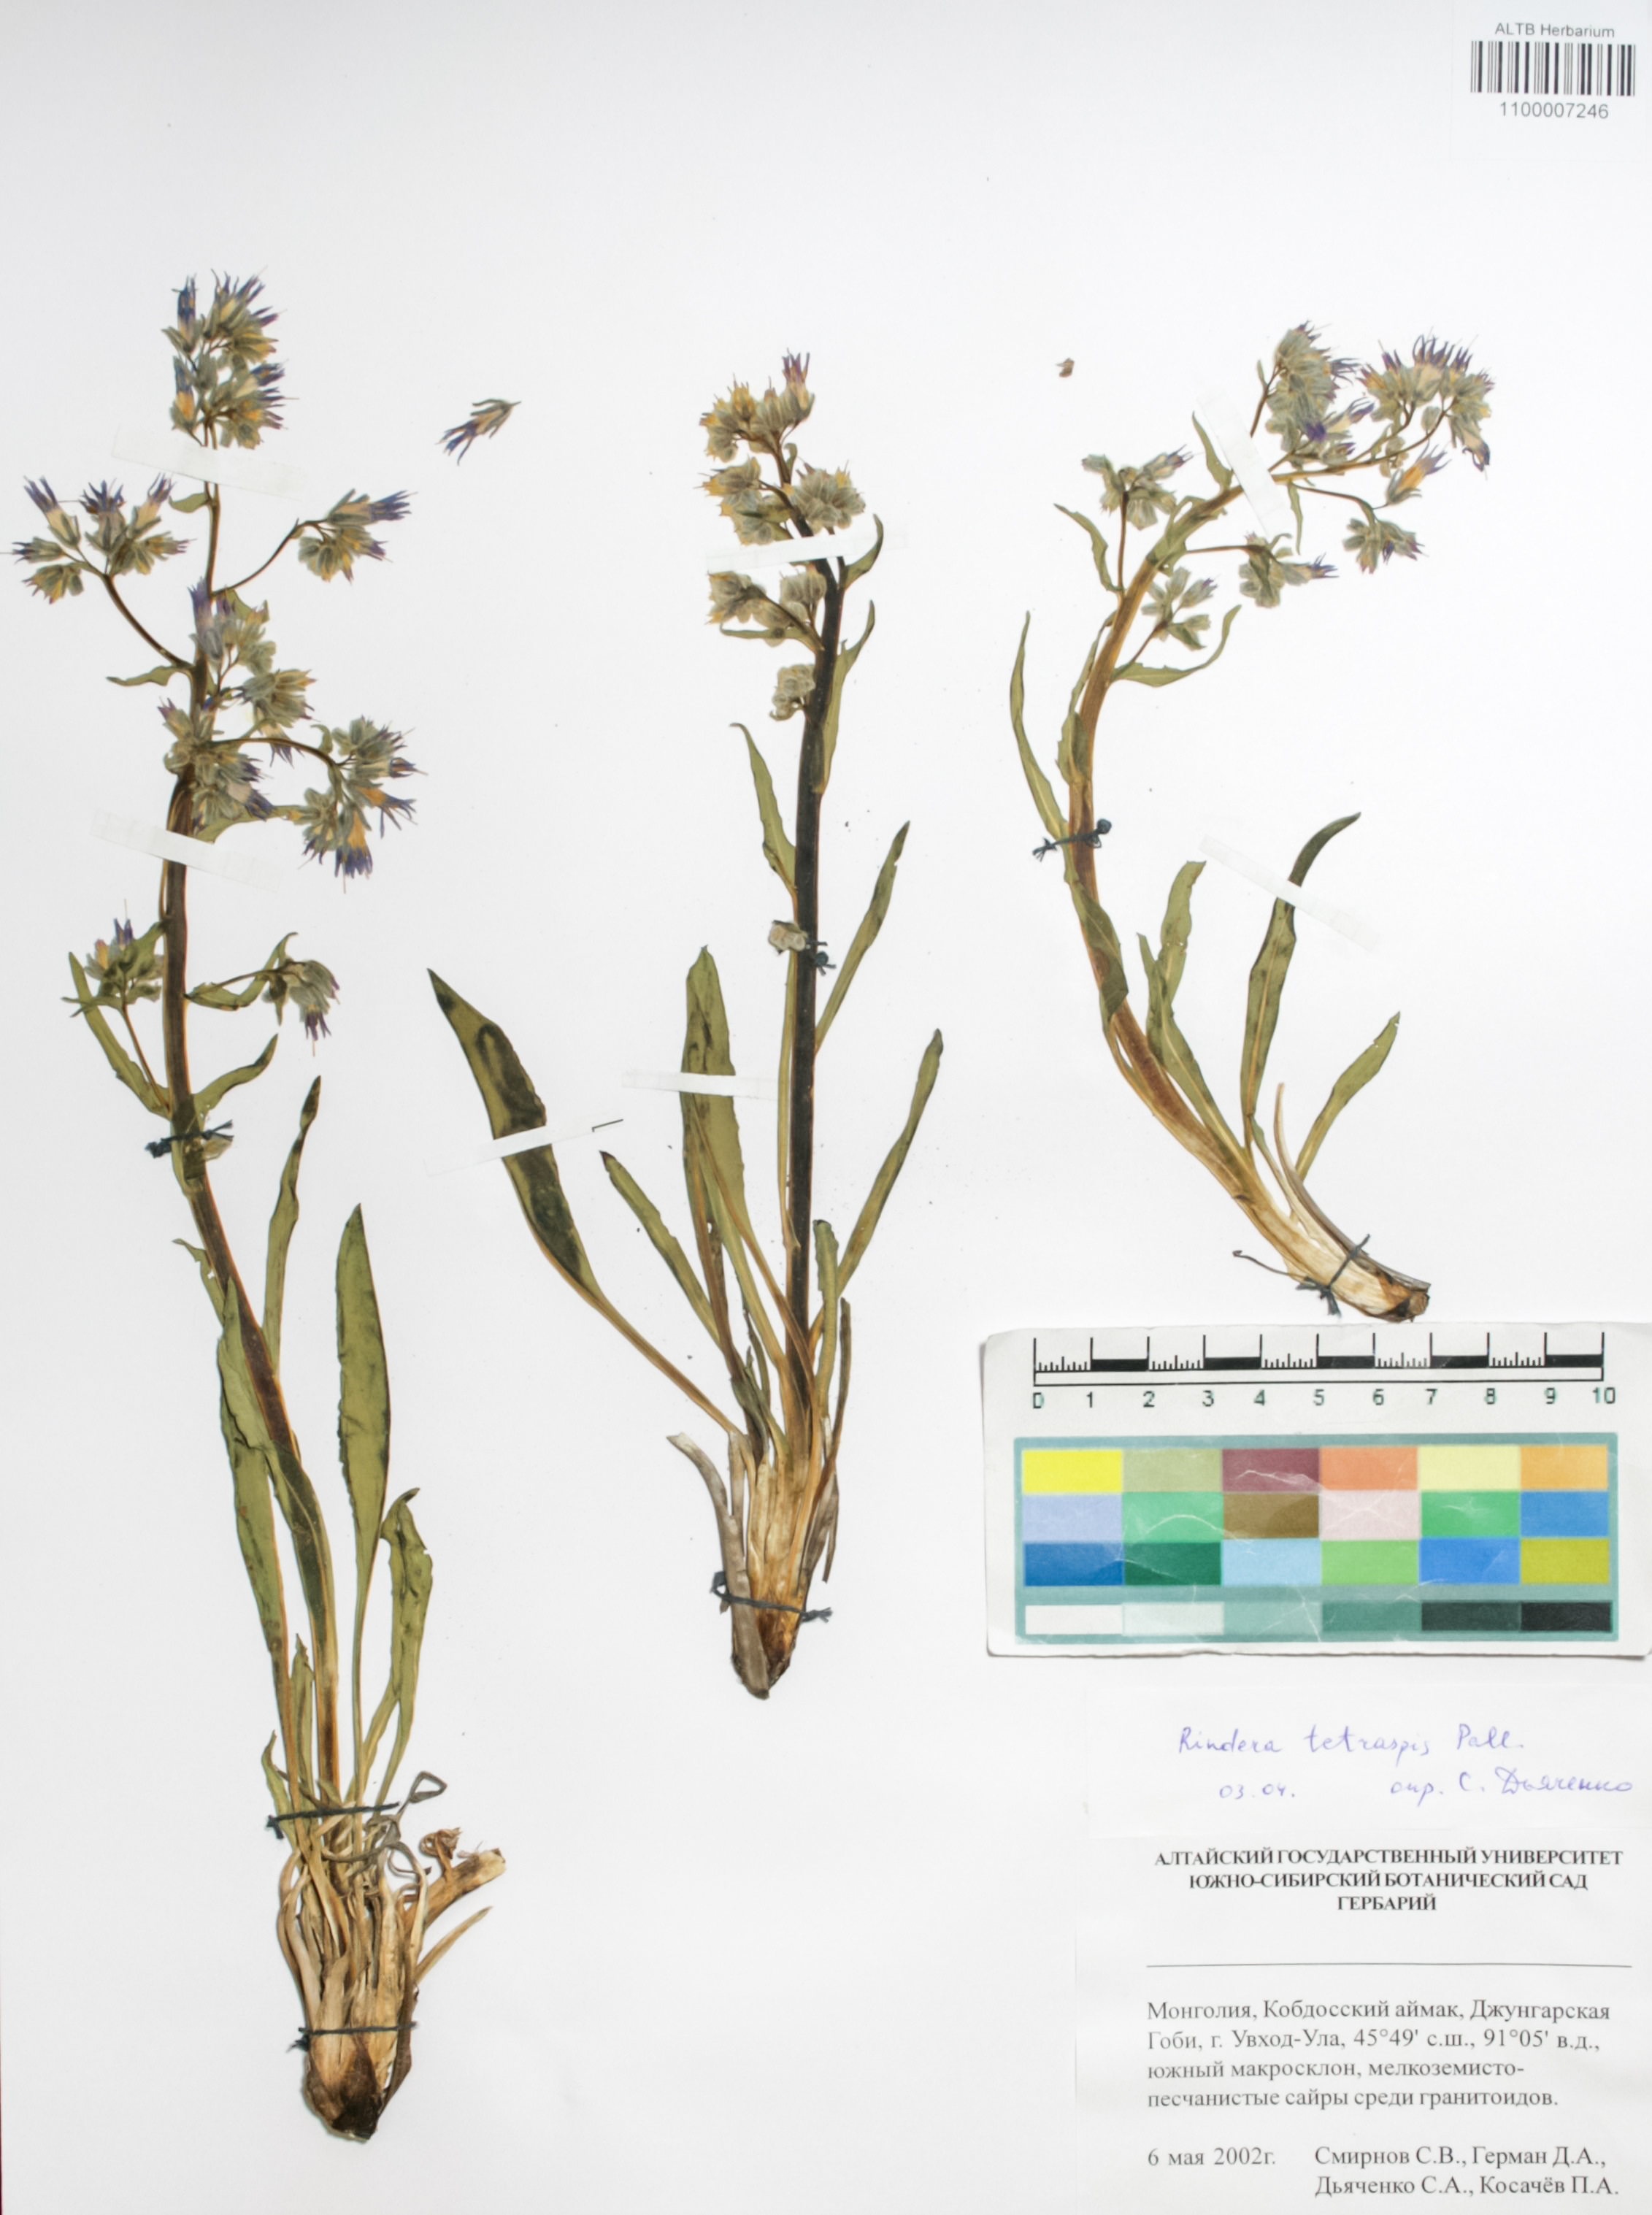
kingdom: Plantae
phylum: Tracheophyta
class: Magnoliopsida
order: Boraginales
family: Boraginaceae
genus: Rindera
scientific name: Rindera tetraspis
